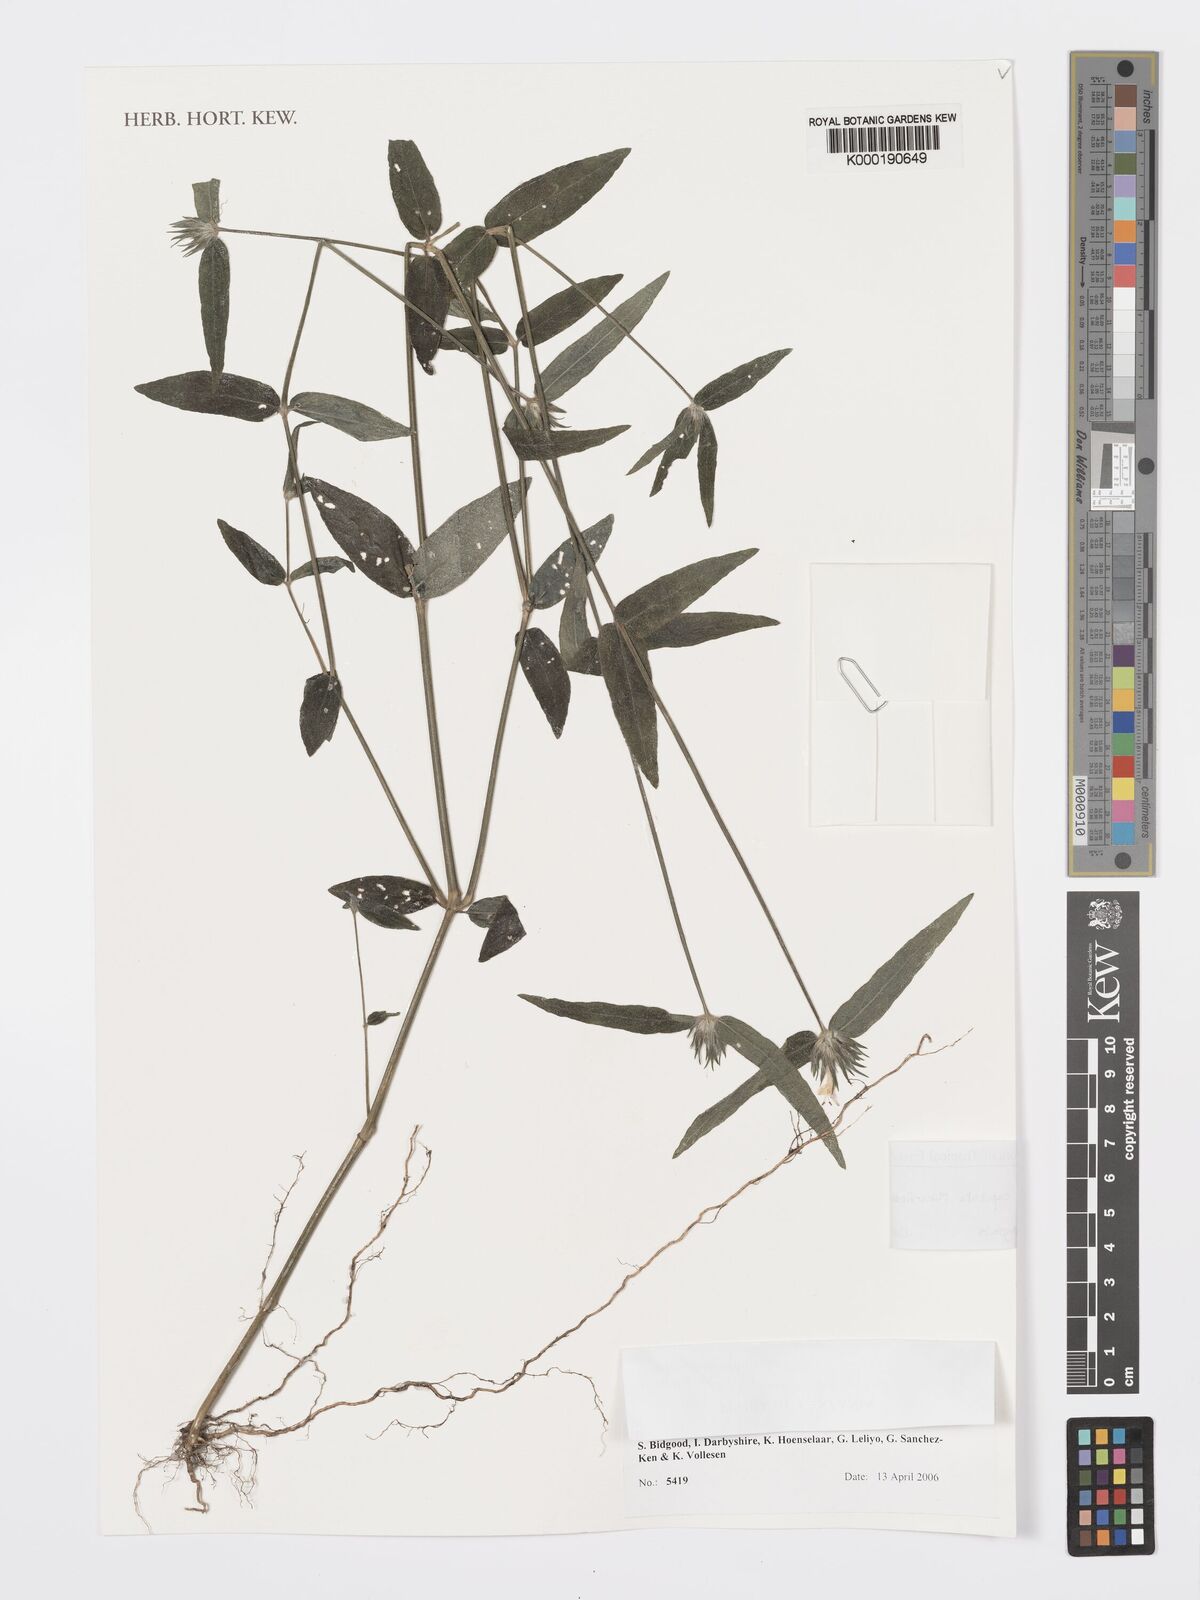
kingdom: Plantae
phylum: Tracheophyta
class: Magnoliopsida
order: Lamiales
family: Acanthaceae
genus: Dicliptera
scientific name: Dicliptera capitata
